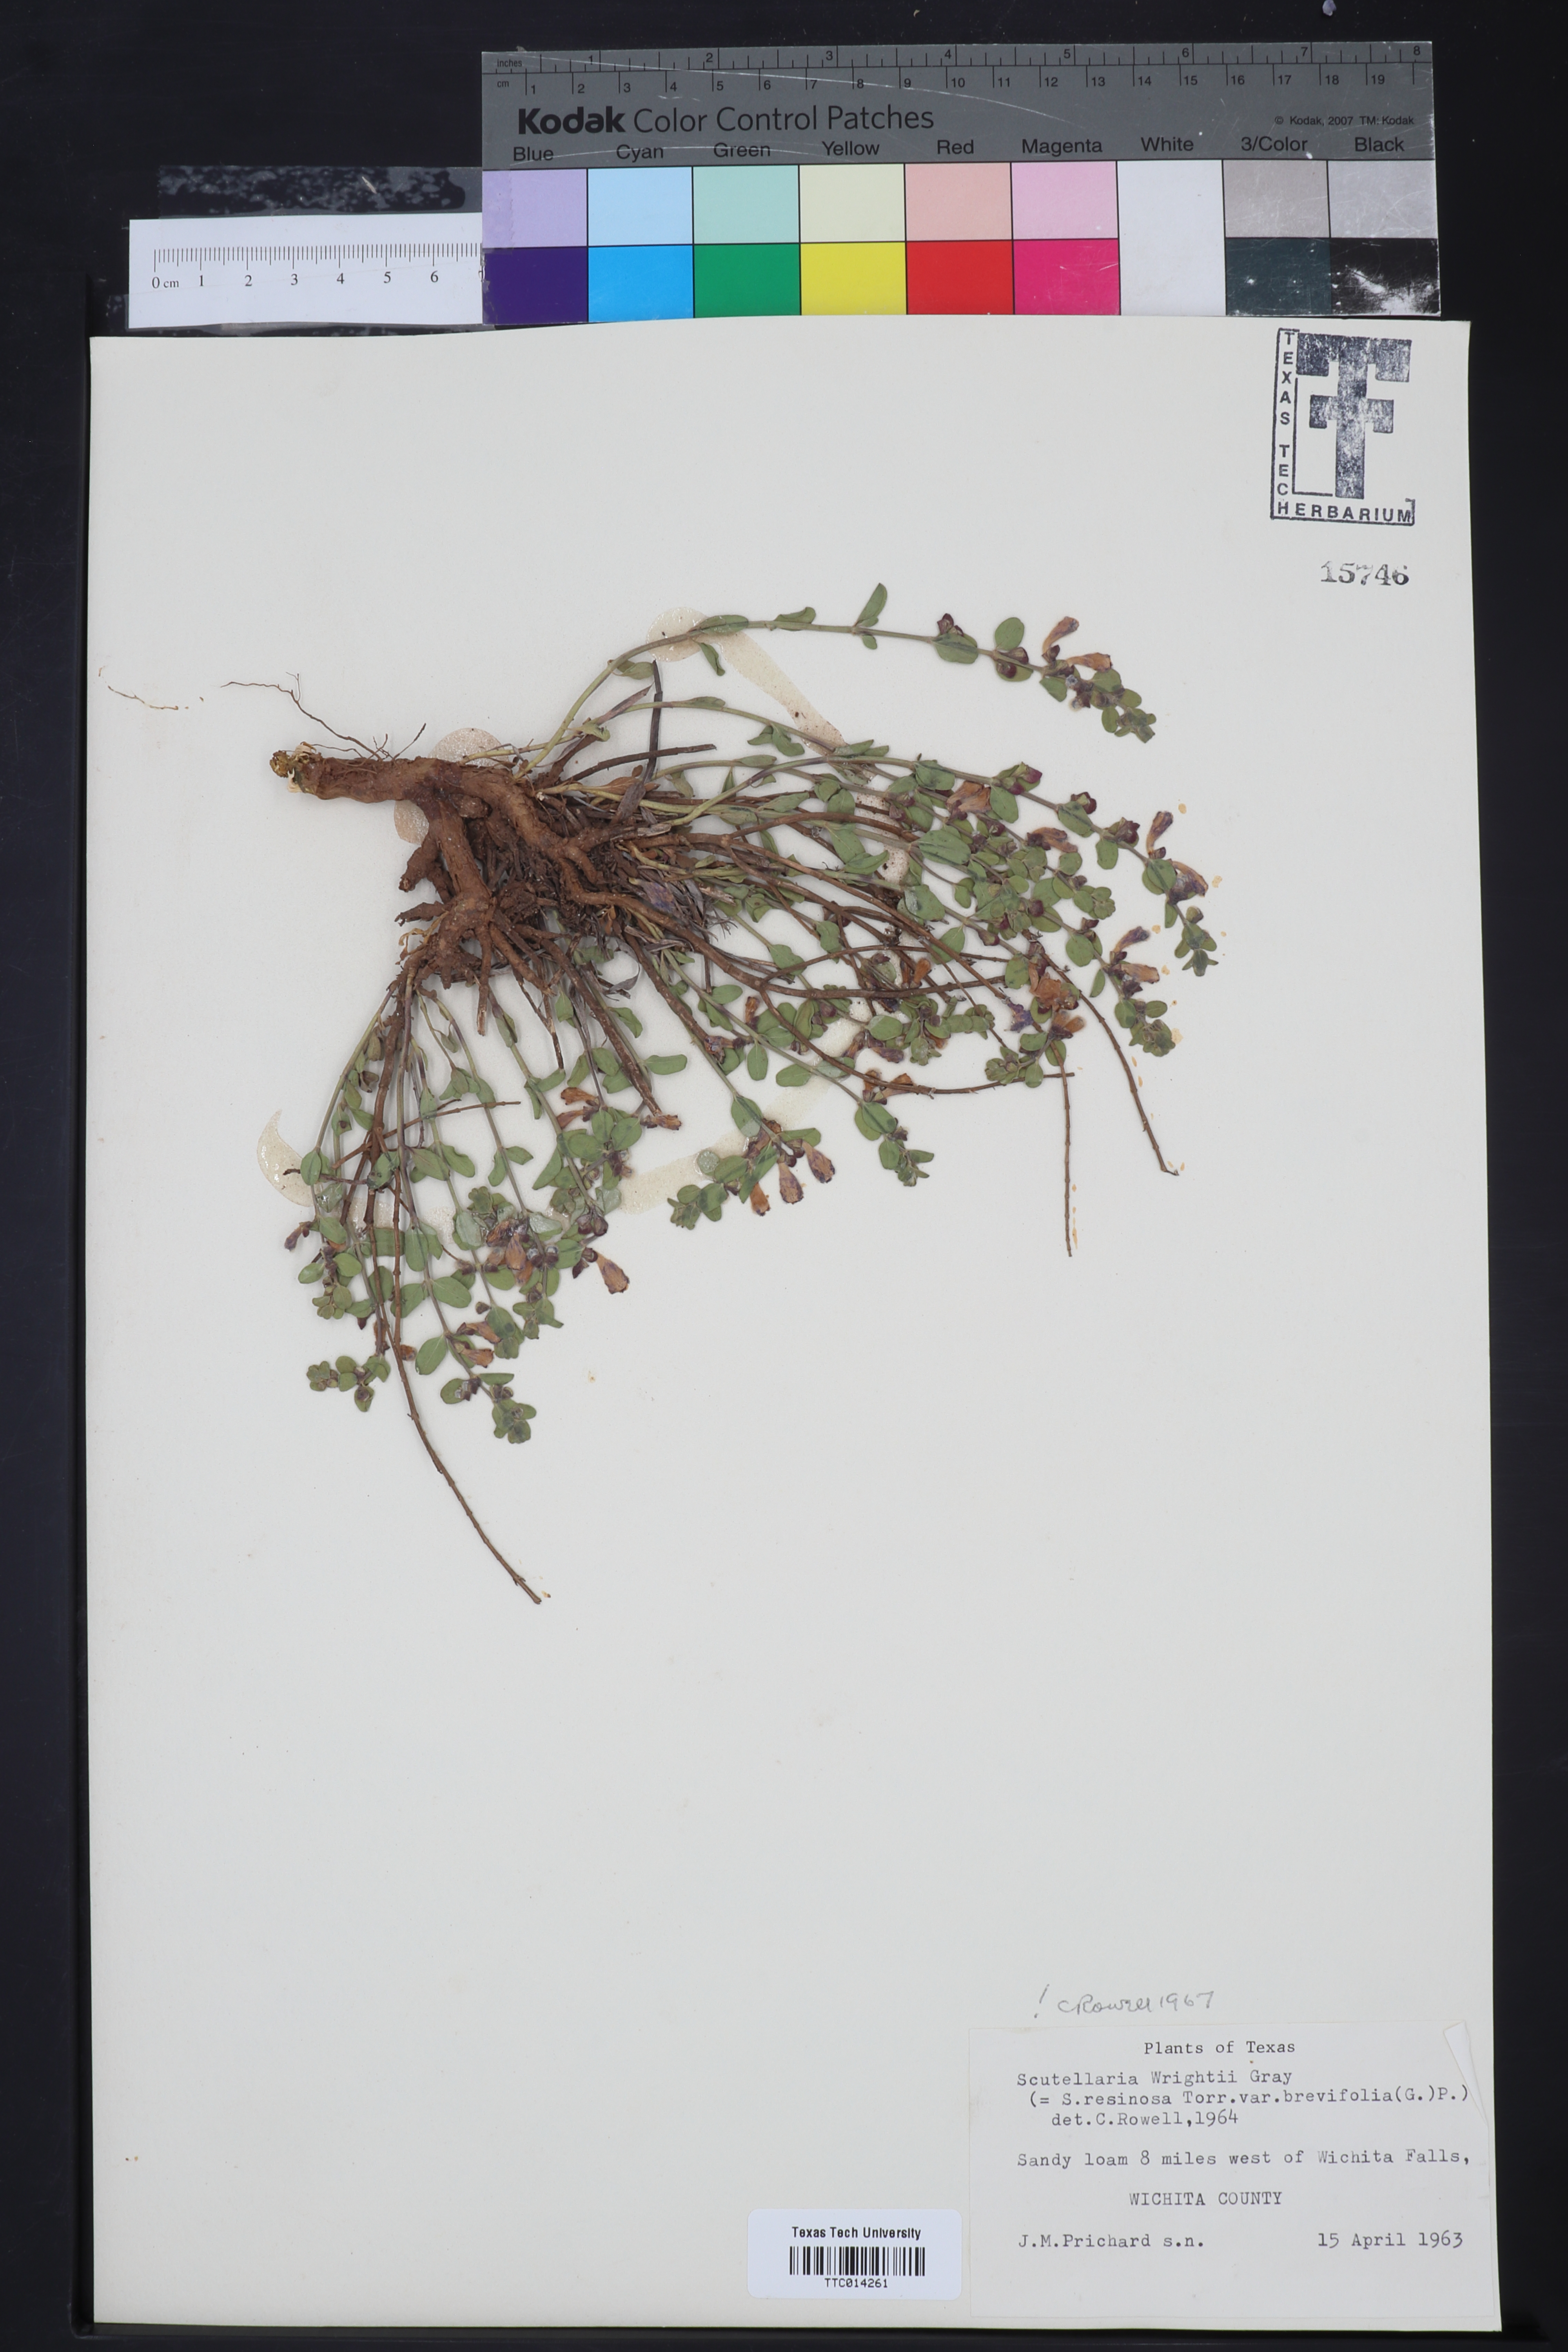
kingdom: Plantae
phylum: Tracheophyta
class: Magnoliopsida
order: Lamiales
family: Lamiaceae
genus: Scutellaria
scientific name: Scutellaria resinosa
